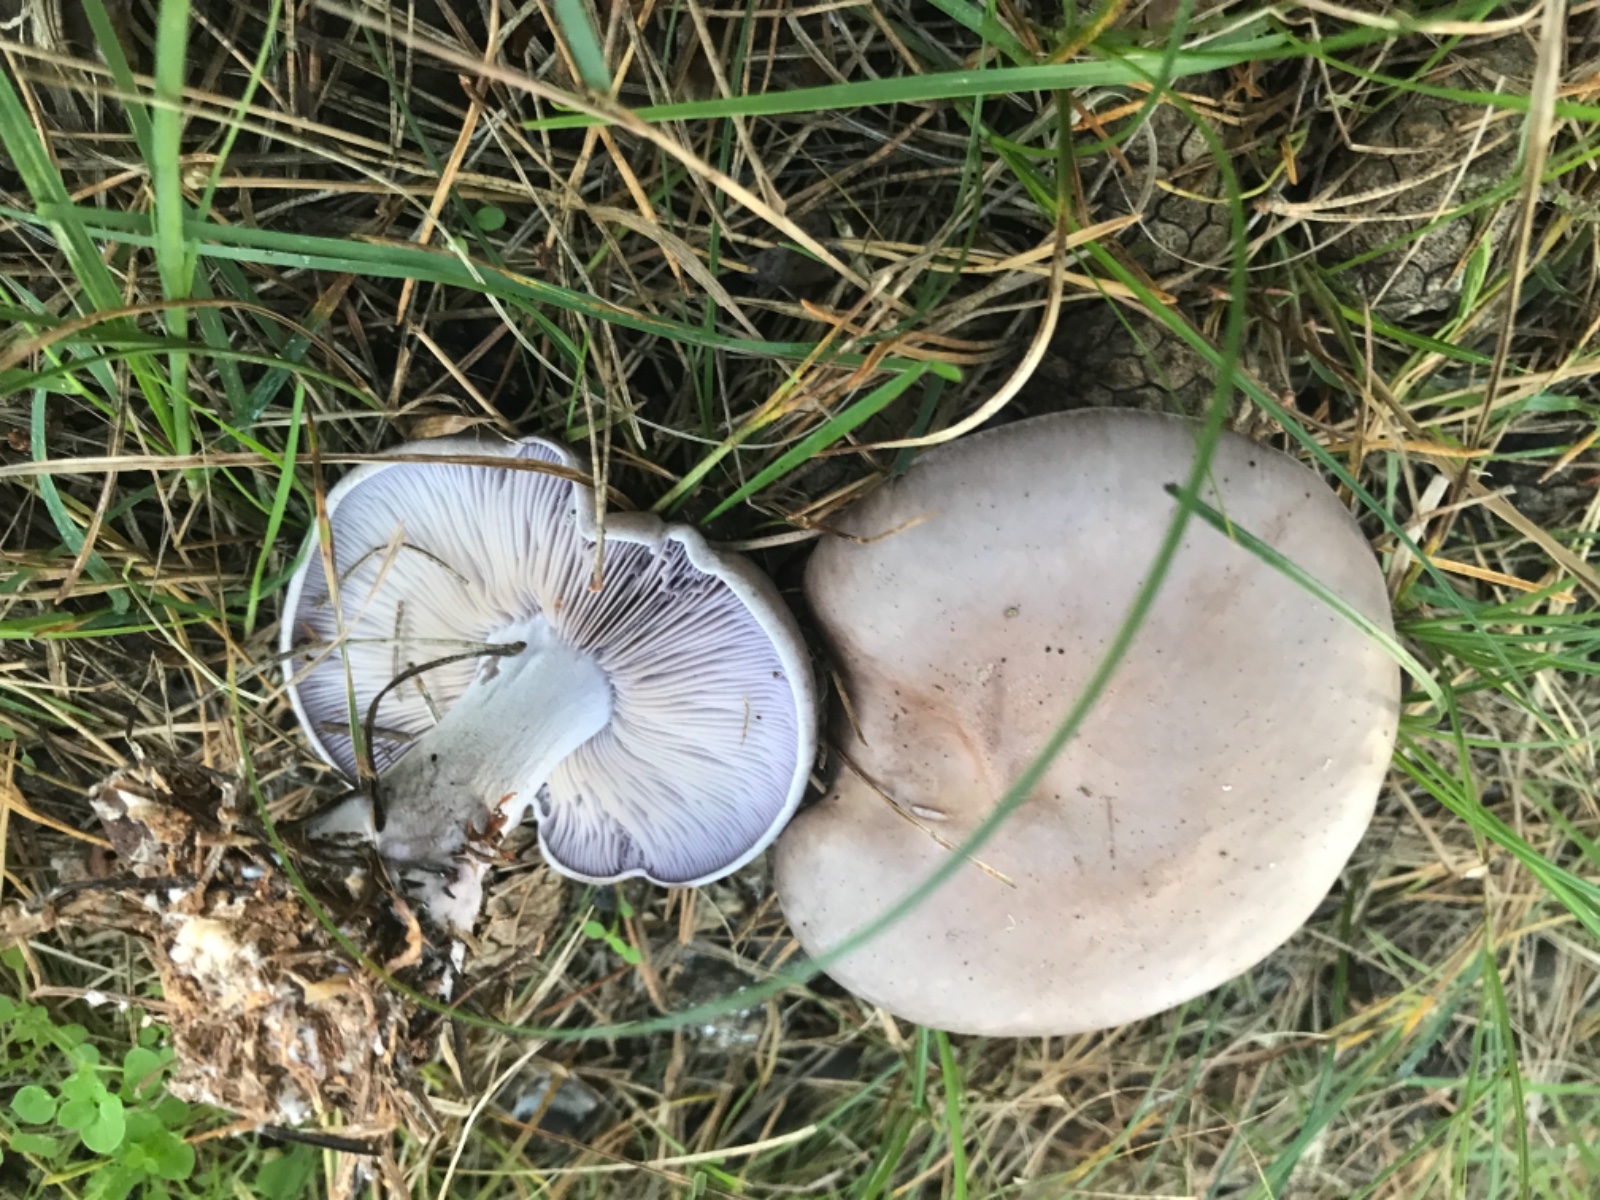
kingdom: Fungi
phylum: Basidiomycota
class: Agaricomycetes
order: Agaricales
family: Tricholomataceae
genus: Lepista
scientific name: Lepista nuda
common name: violet hekseringshat
